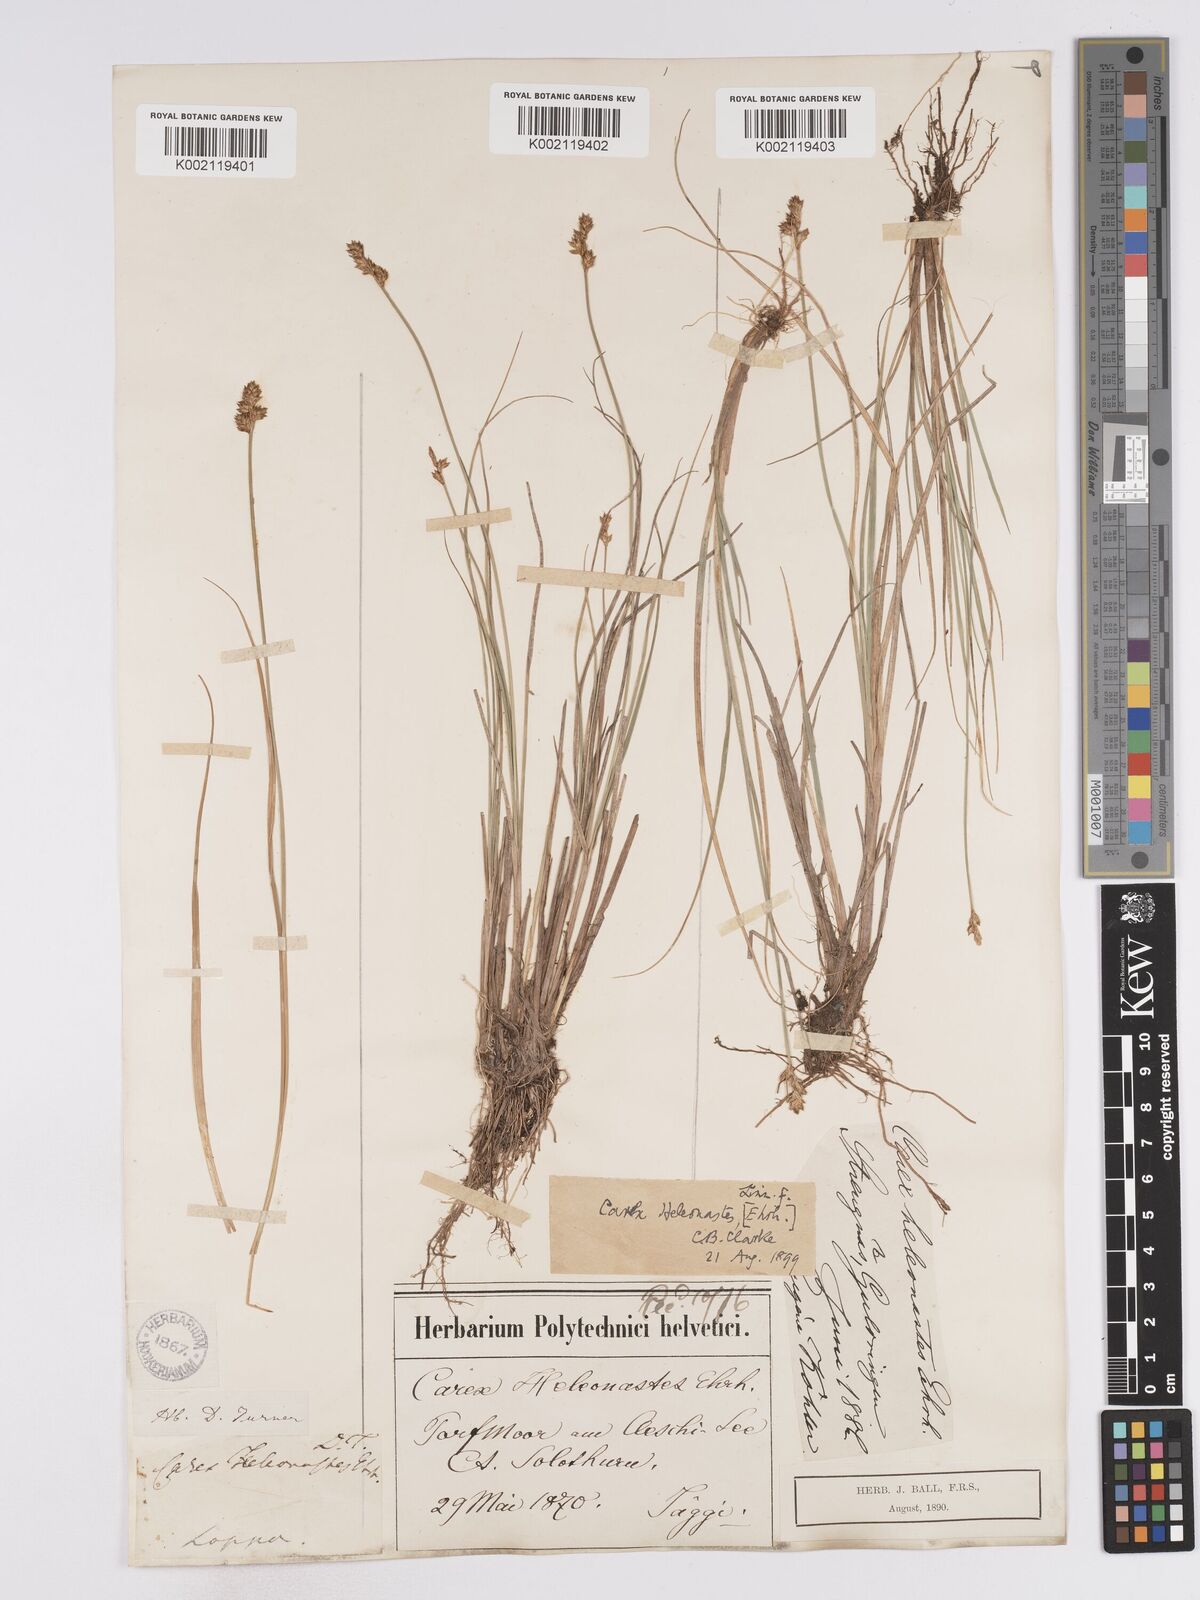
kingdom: Plantae
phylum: Tracheophyta
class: Liliopsida
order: Poales
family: Cyperaceae
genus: Carex
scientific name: Carex heleonastes
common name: Hudson bay sedge
